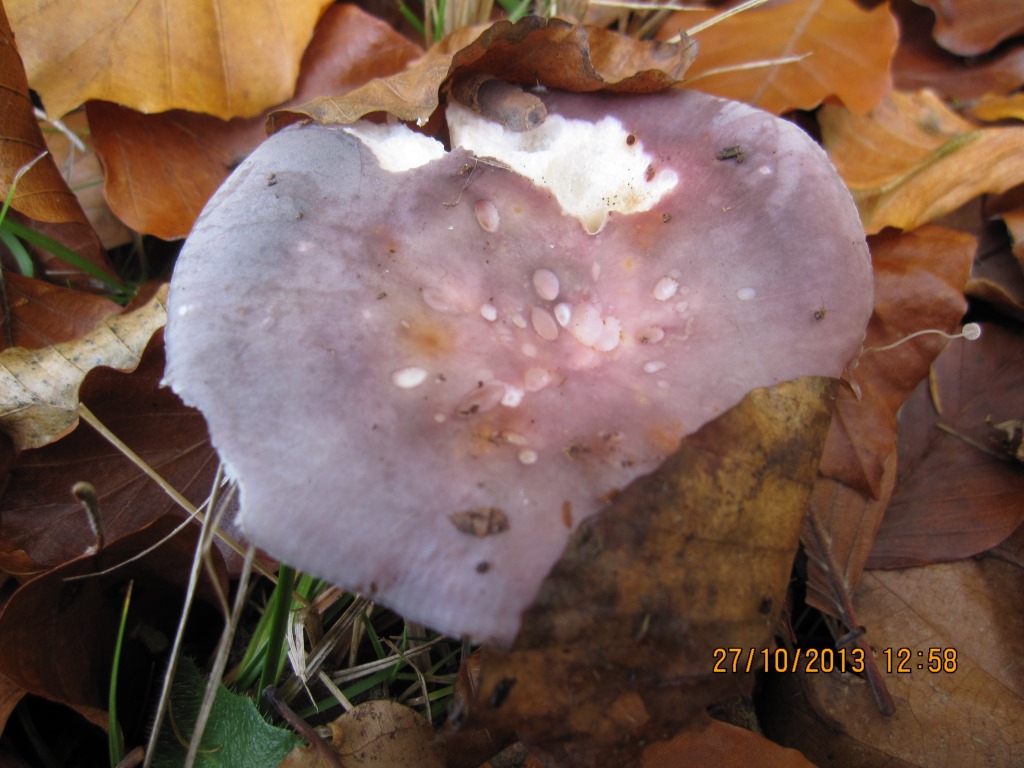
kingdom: Fungi
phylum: Basidiomycota
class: Agaricomycetes
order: Russulales
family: Russulaceae
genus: Russula
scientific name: Russula grisea
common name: grålig skørhat
